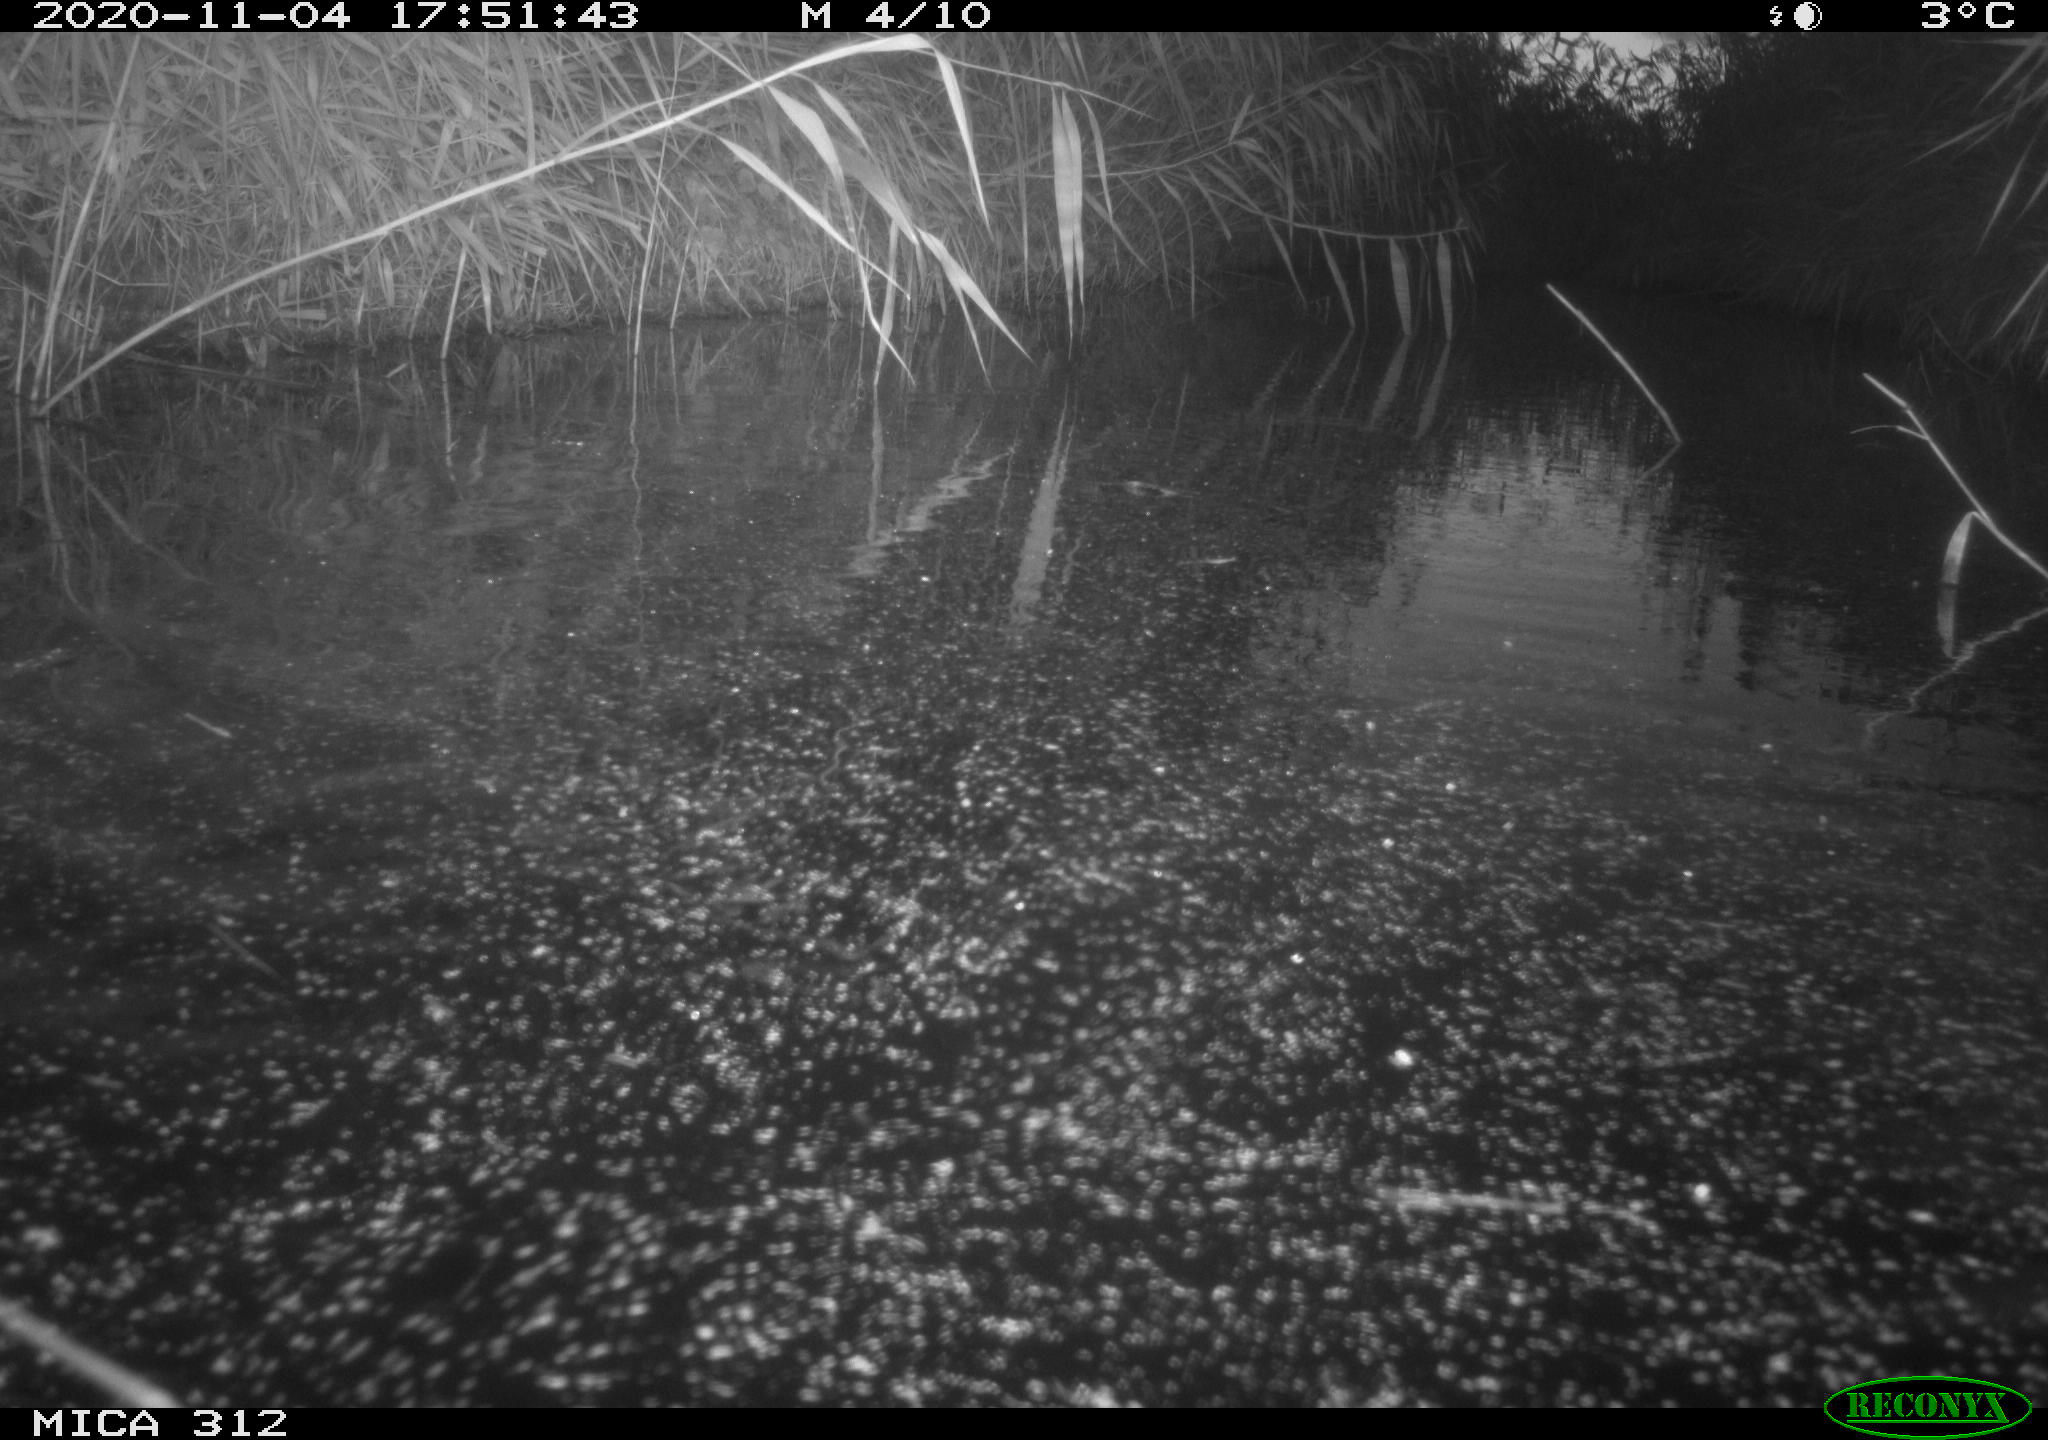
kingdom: Animalia
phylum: Chordata
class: Mammalia
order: Rodentia
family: Muridae
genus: Rattus
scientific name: Rattus norvegicus
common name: Brown rat
